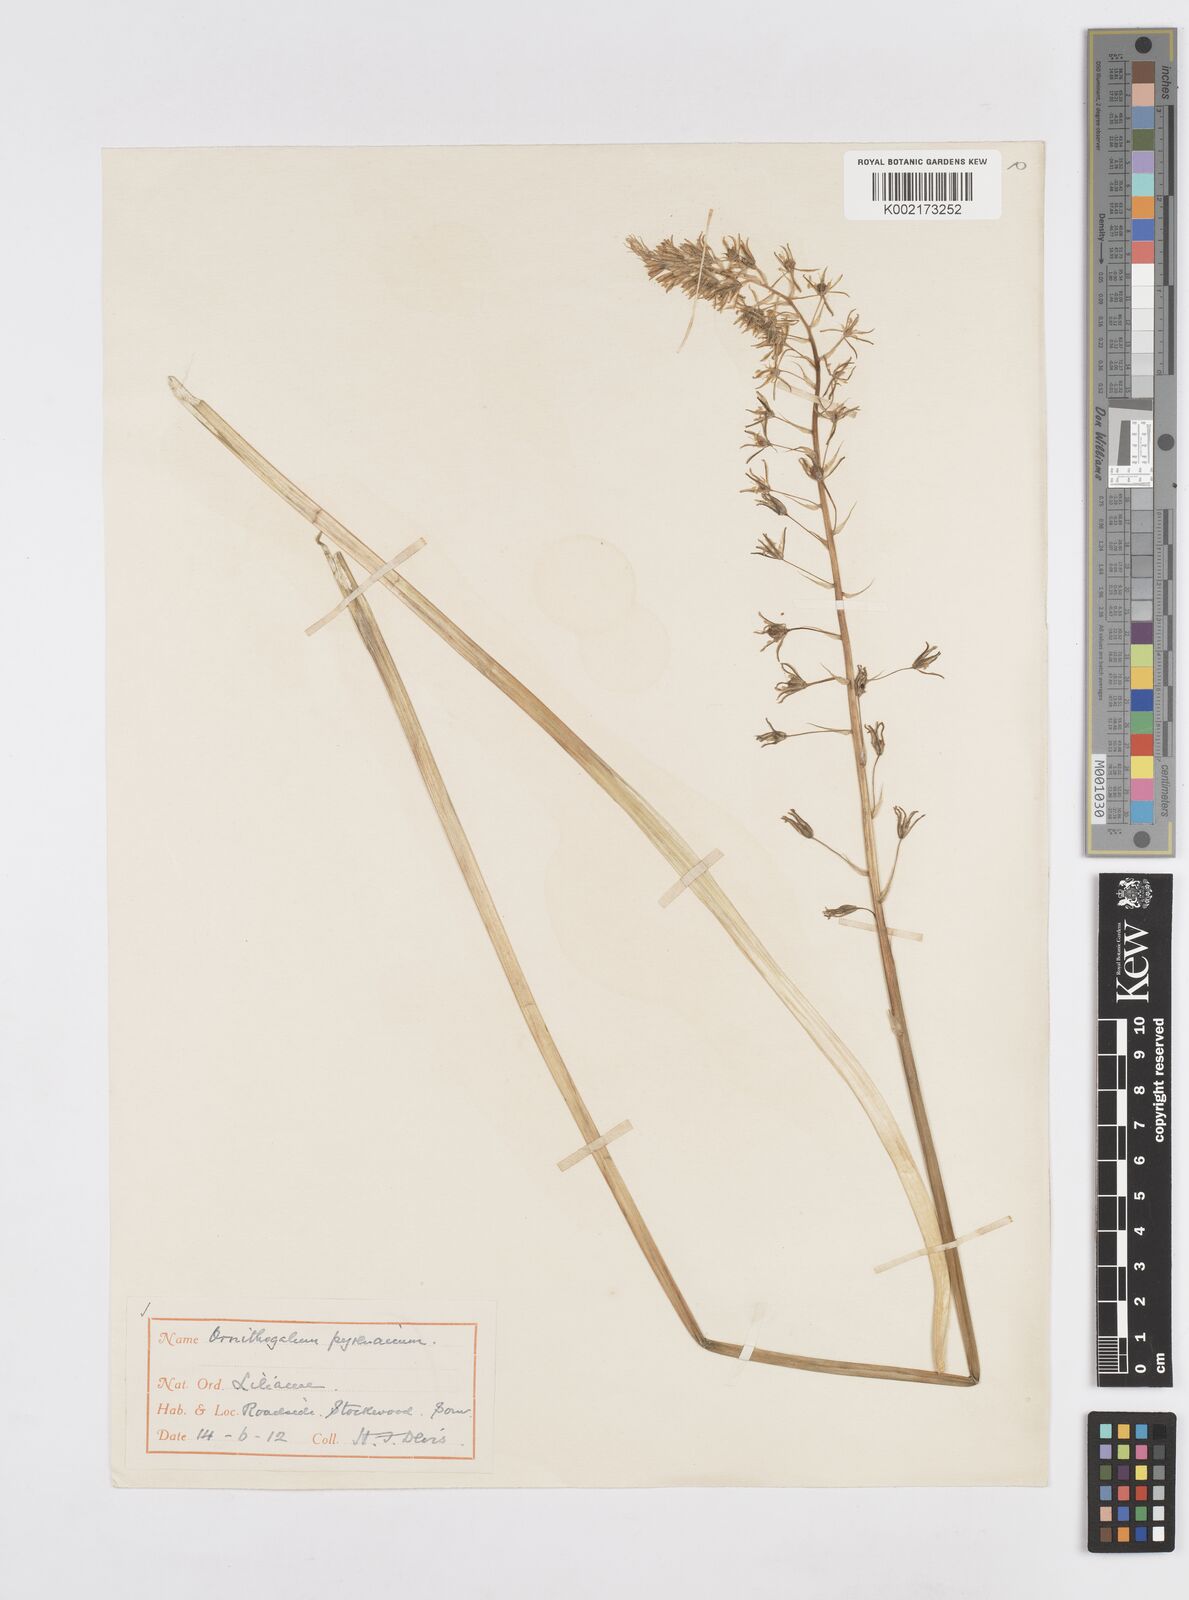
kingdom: Plantae
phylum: Tracheophyta
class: Liliopsida
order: Asparagales
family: Asparagaceae
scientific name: Asparagaceae
